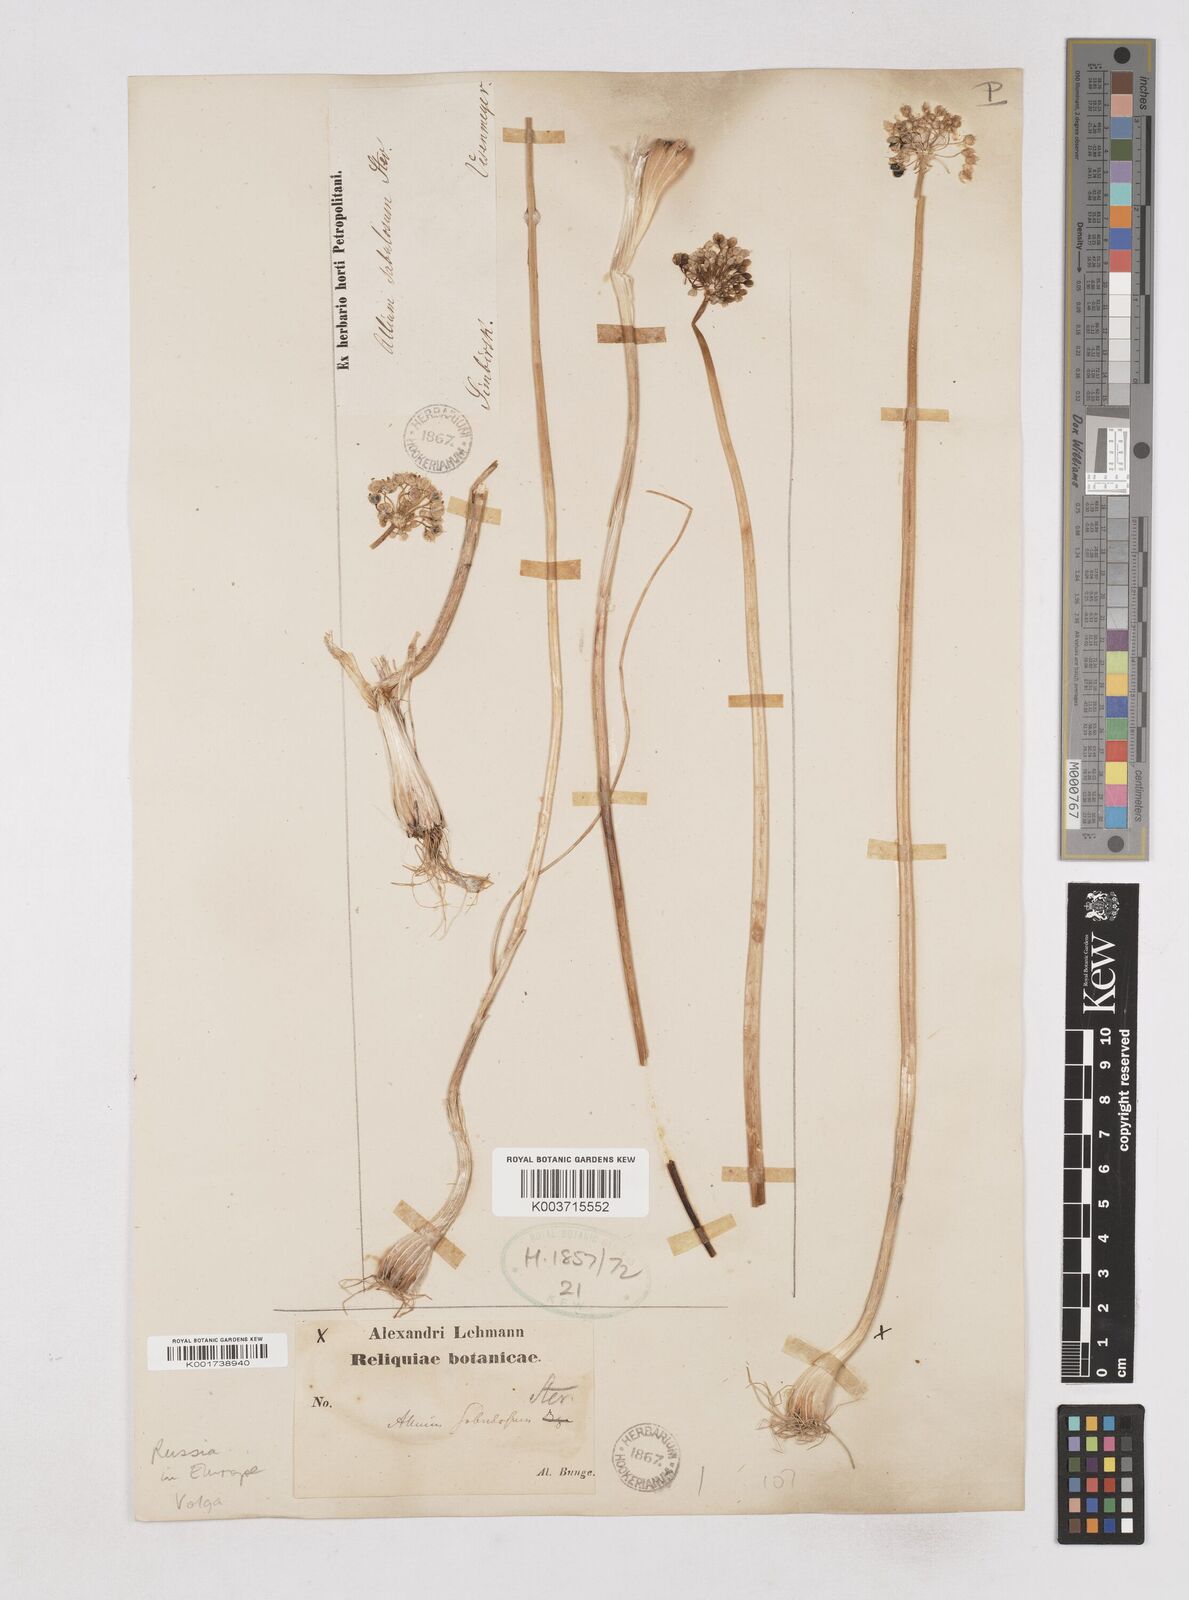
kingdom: Plantae
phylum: Tracheophyta
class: Liliopsida
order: Asparagales
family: Amaryllidaceae
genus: Allium
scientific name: Allium sabulosum
